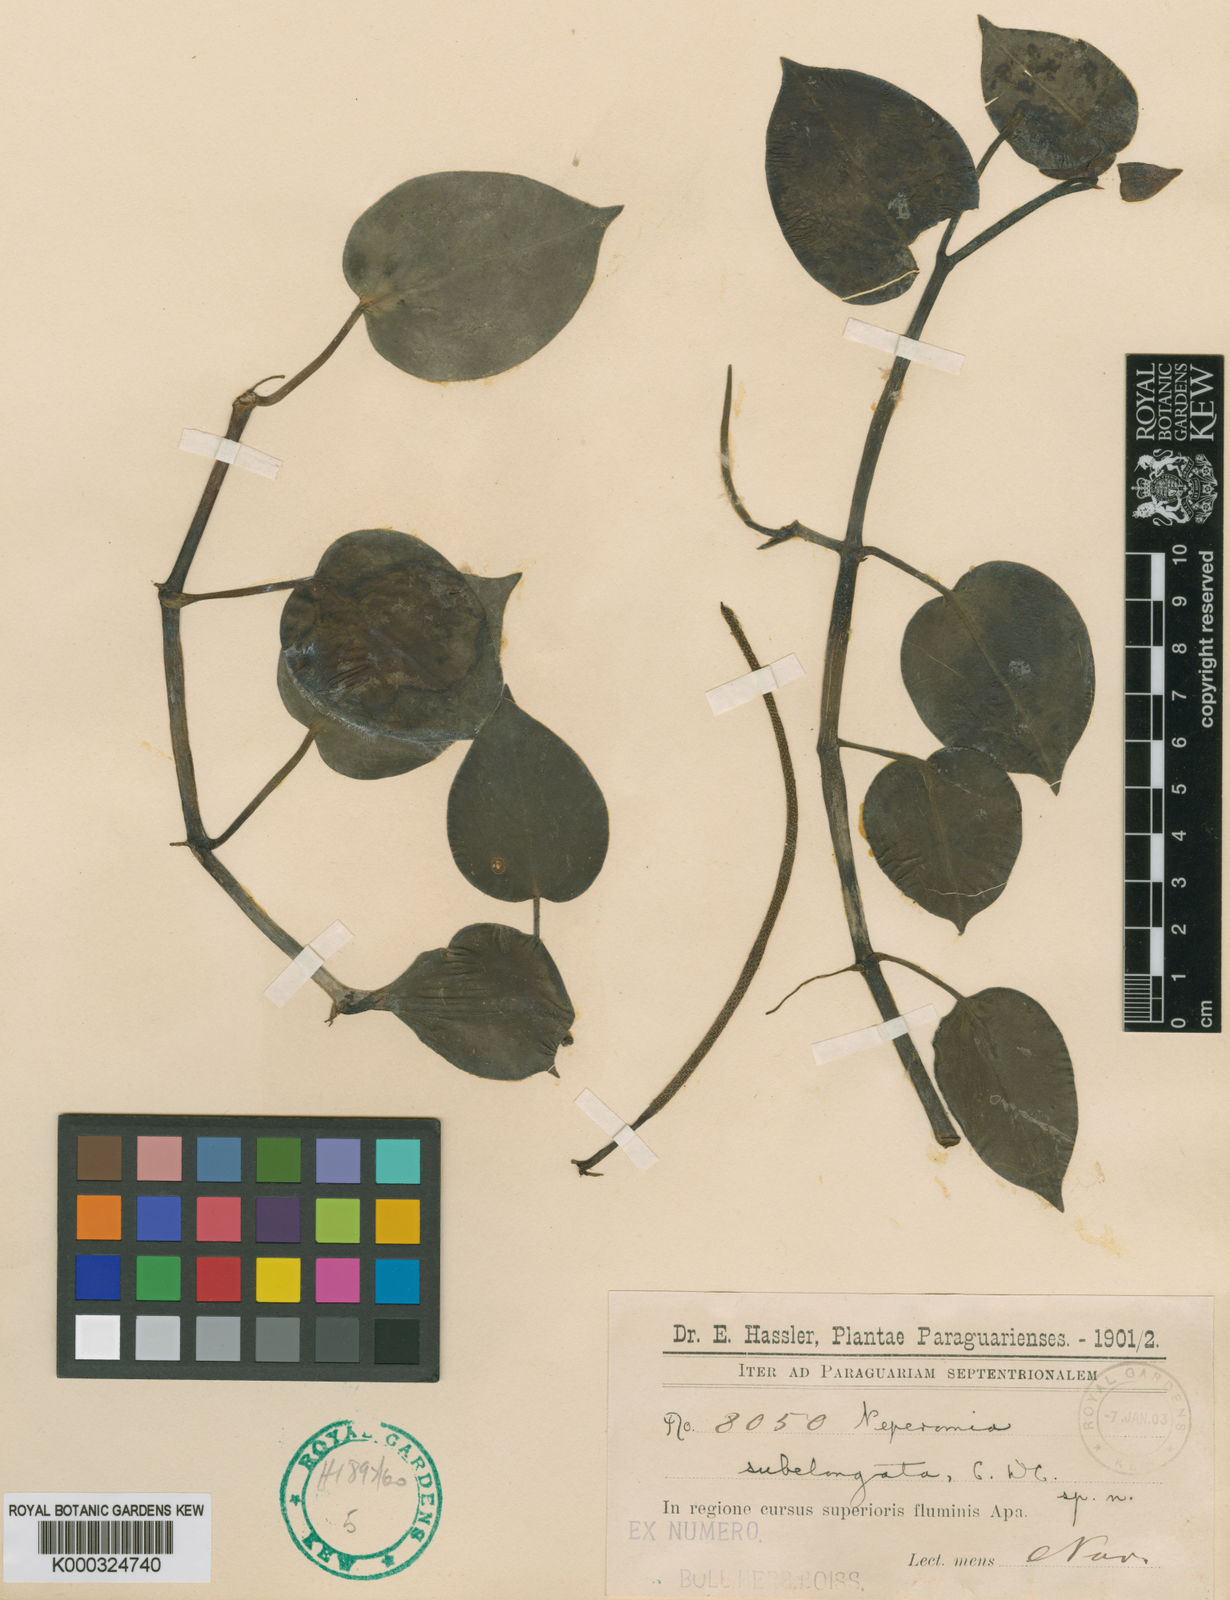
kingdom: Plantae
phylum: Tracheophyta
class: Magnoliopsida
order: Piperales
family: Piperaceae
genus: Peperomia
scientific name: Peperomia subelongata
